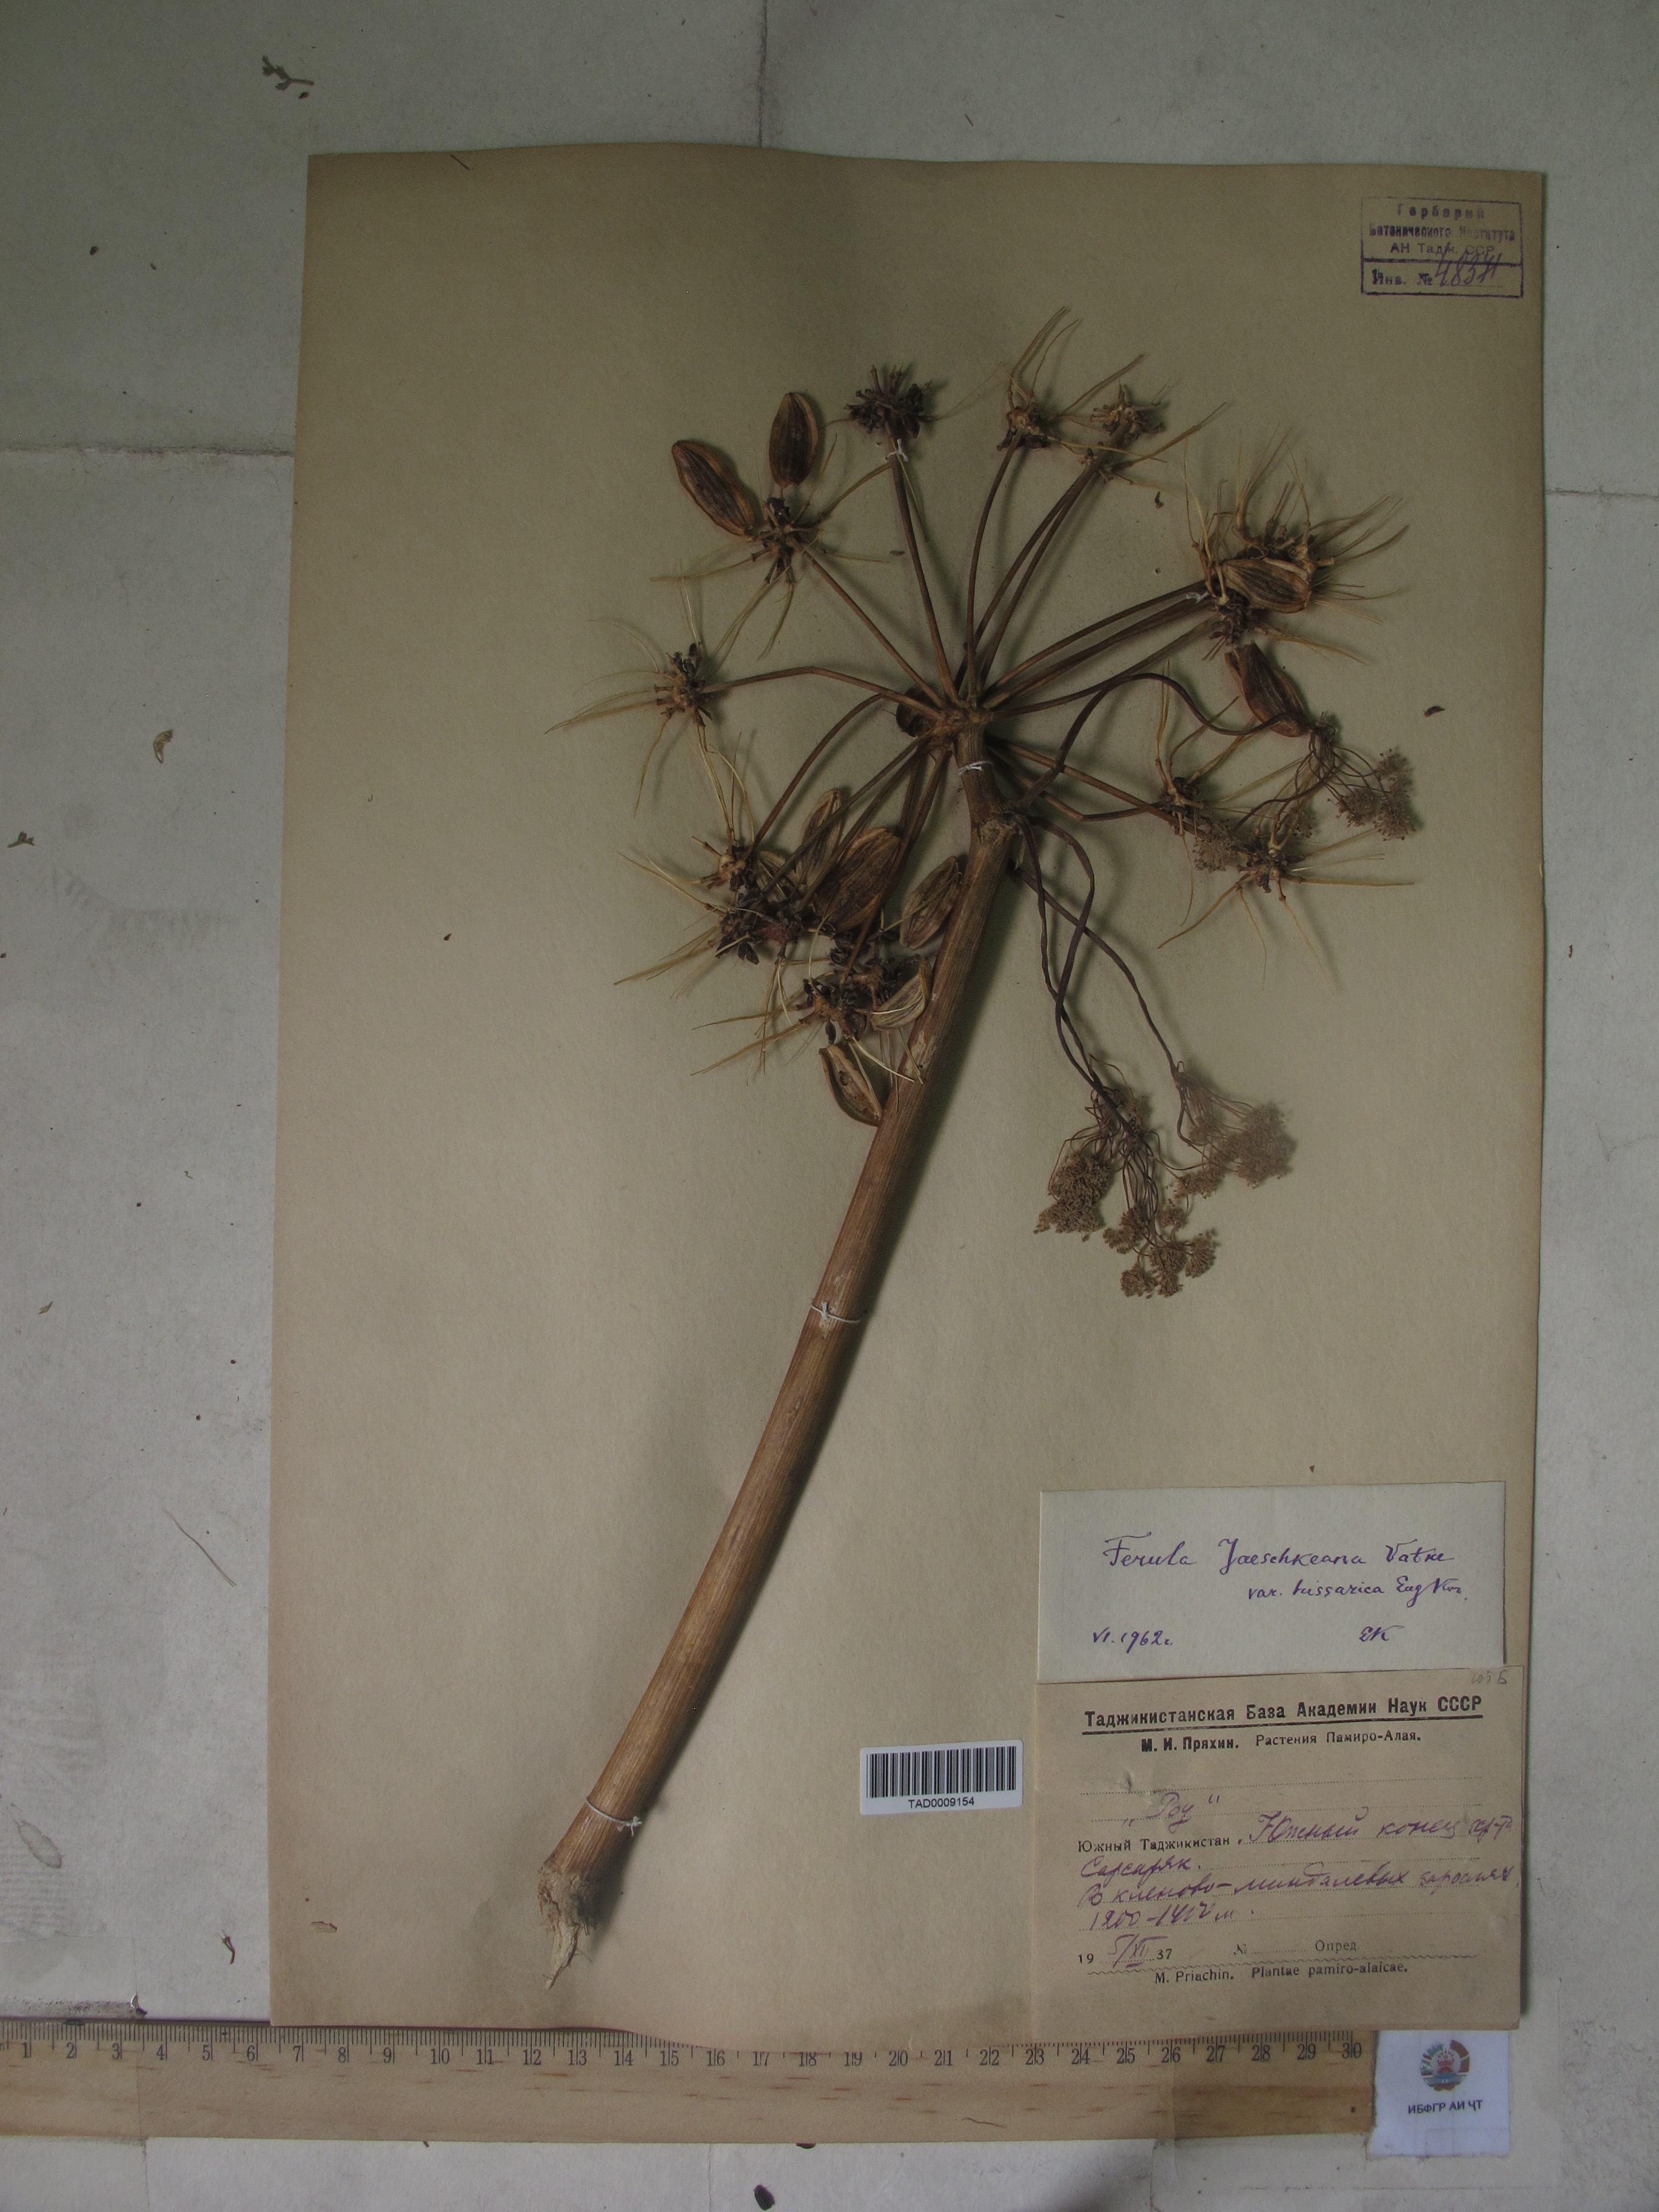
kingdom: Plantae
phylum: Tracheophyta
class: Magnoliopsida
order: Apiales
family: Apiaceae
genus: Ferula
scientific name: Ferula jaeschkeana
